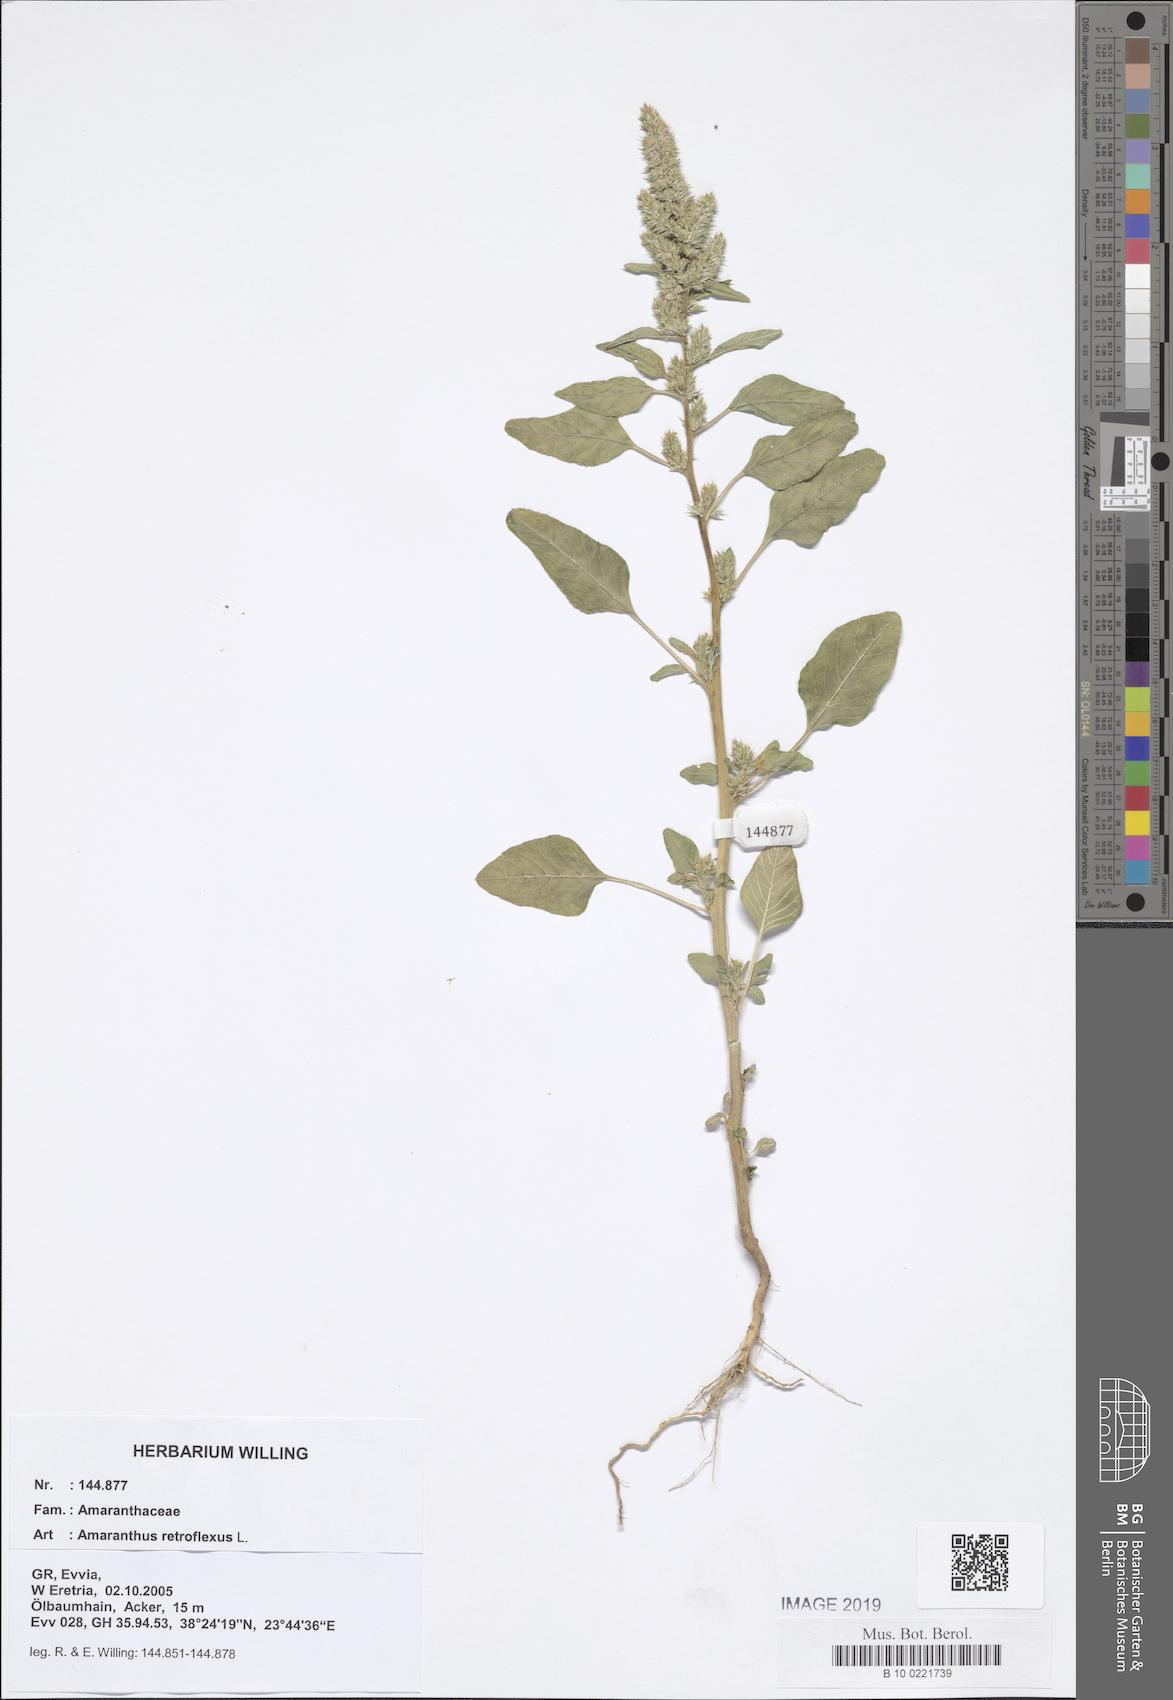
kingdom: Plantae
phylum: Tracheophyta
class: Magnoliopsida
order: Caryophyllales
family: Amaranthaceae
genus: Amaranthus
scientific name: Amaranthus retroflexus
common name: Redroot amaranth
